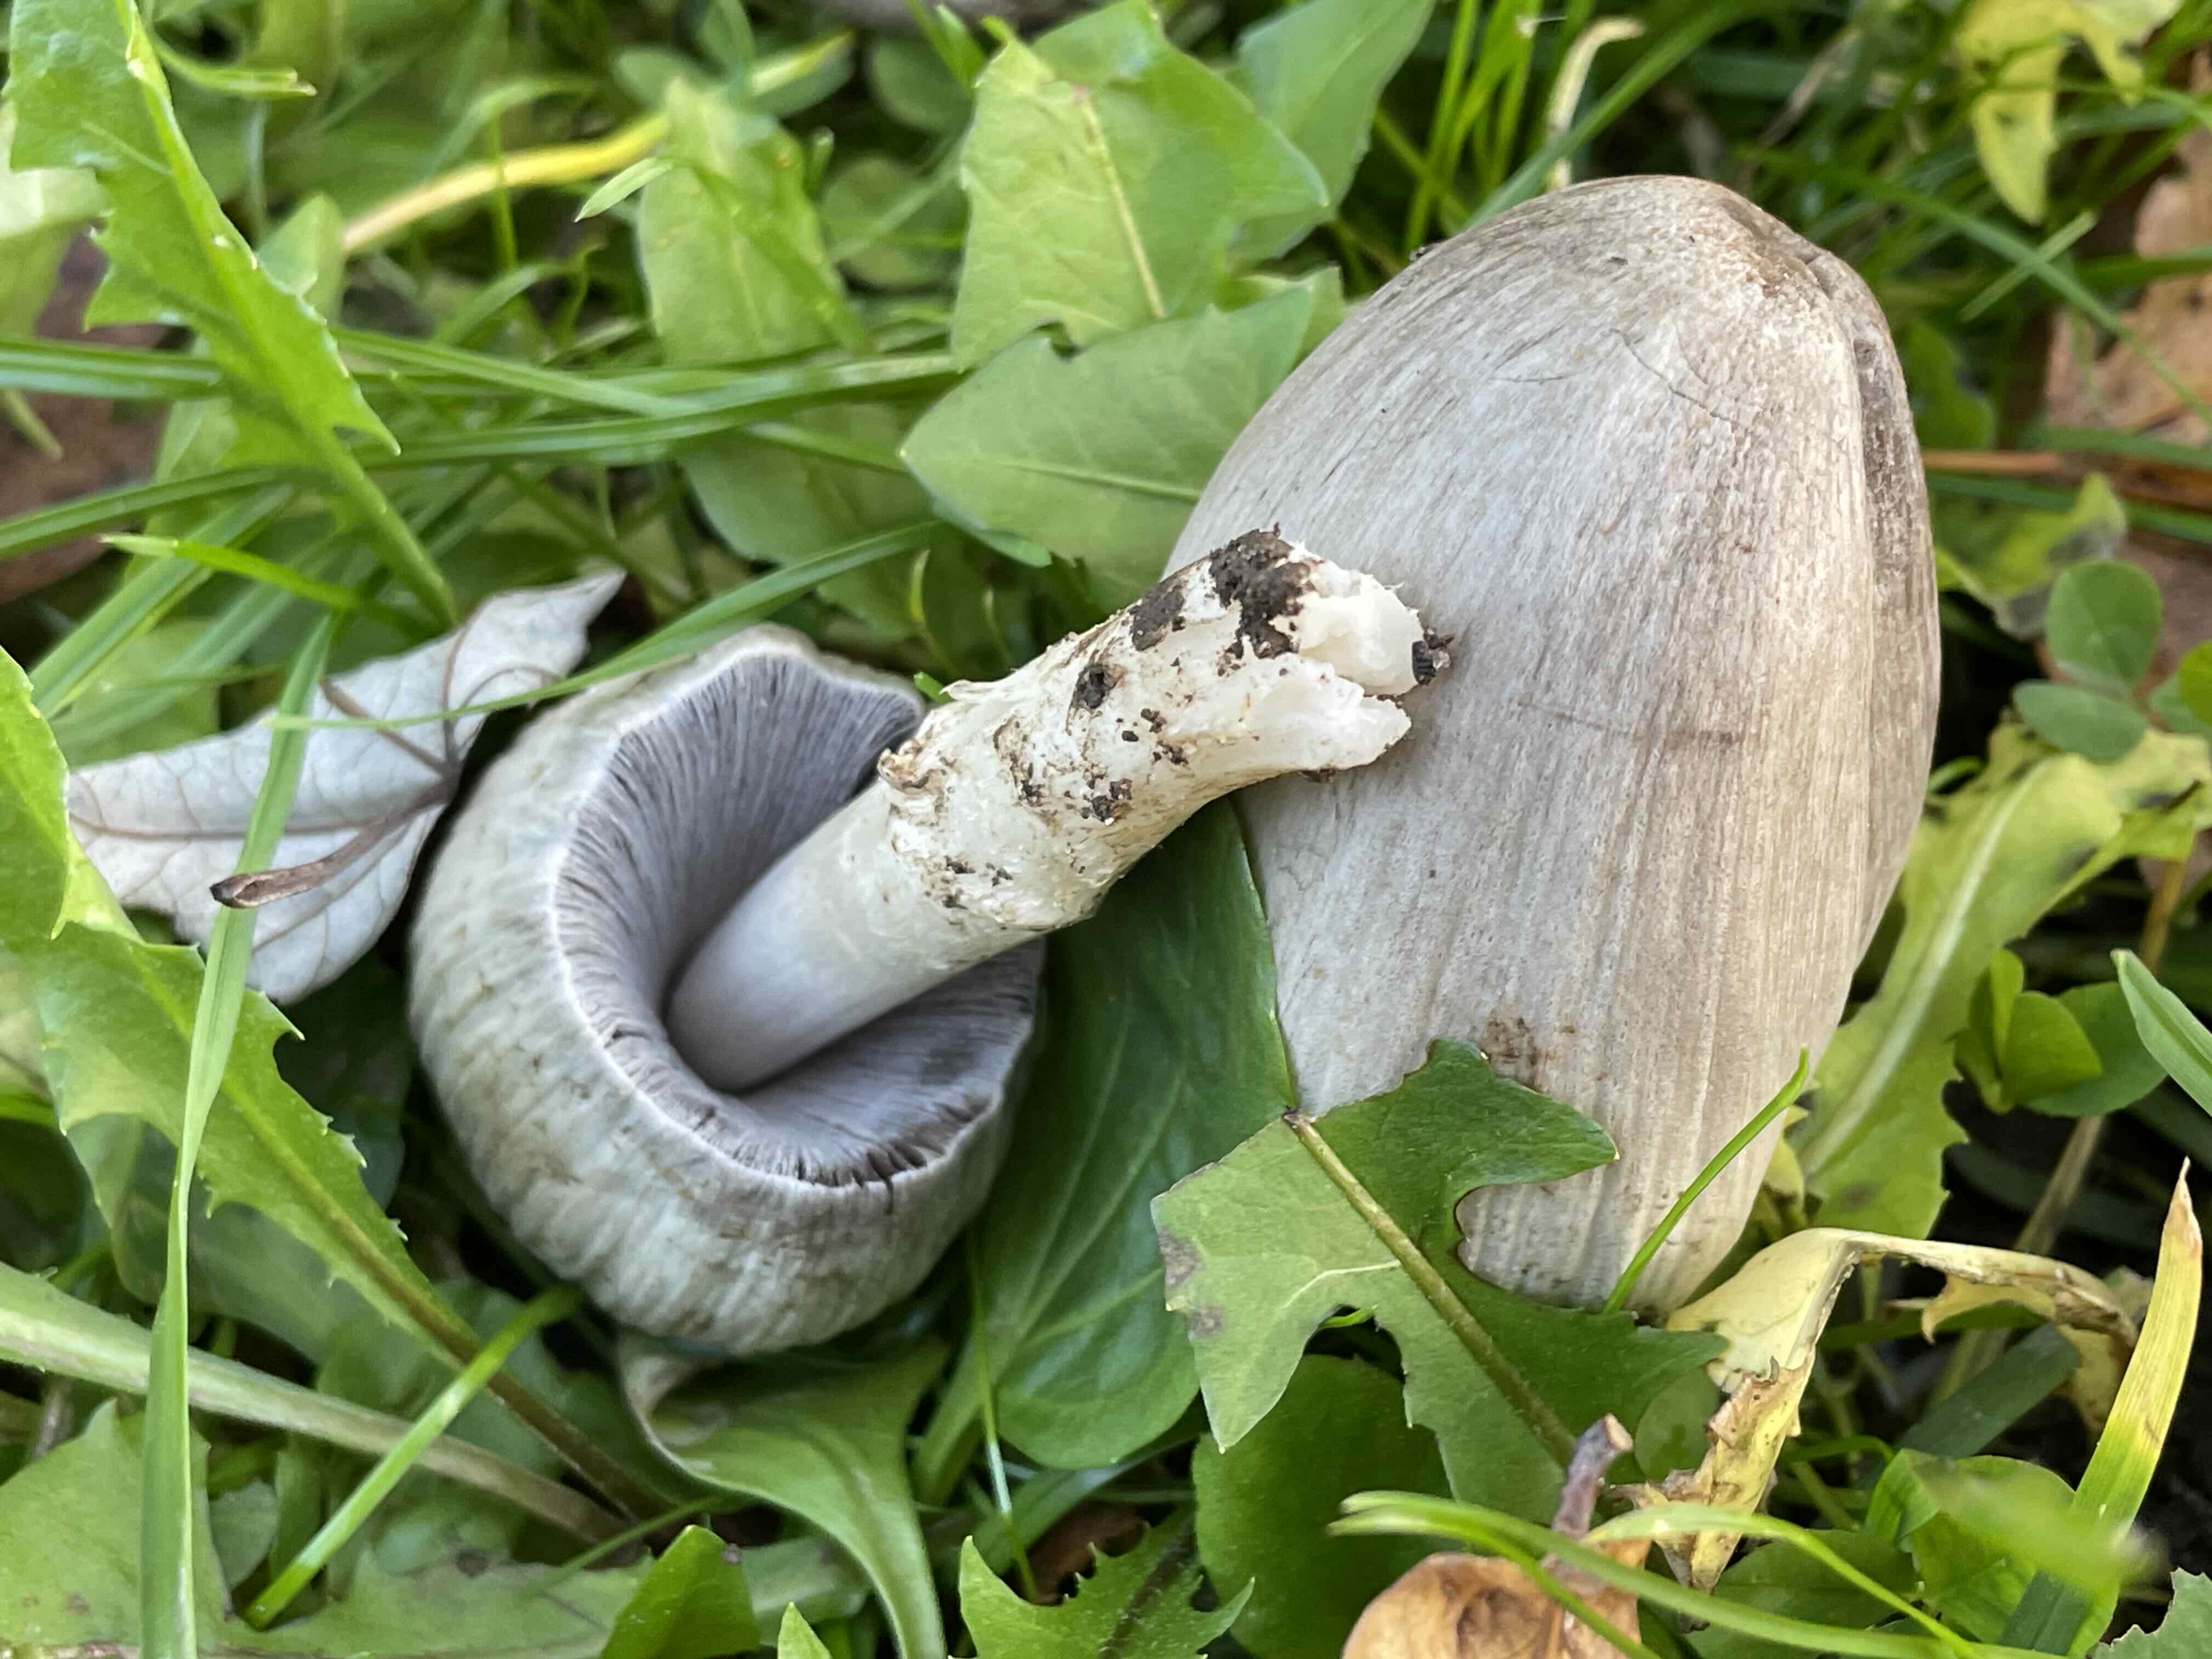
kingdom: Fungi
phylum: Basidiomycota
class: Agaricomycetes
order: Agaricales
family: Psathyrellaceae
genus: Coprinopsis
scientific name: Coprinopsis atramentaria
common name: almindelig blækhat
